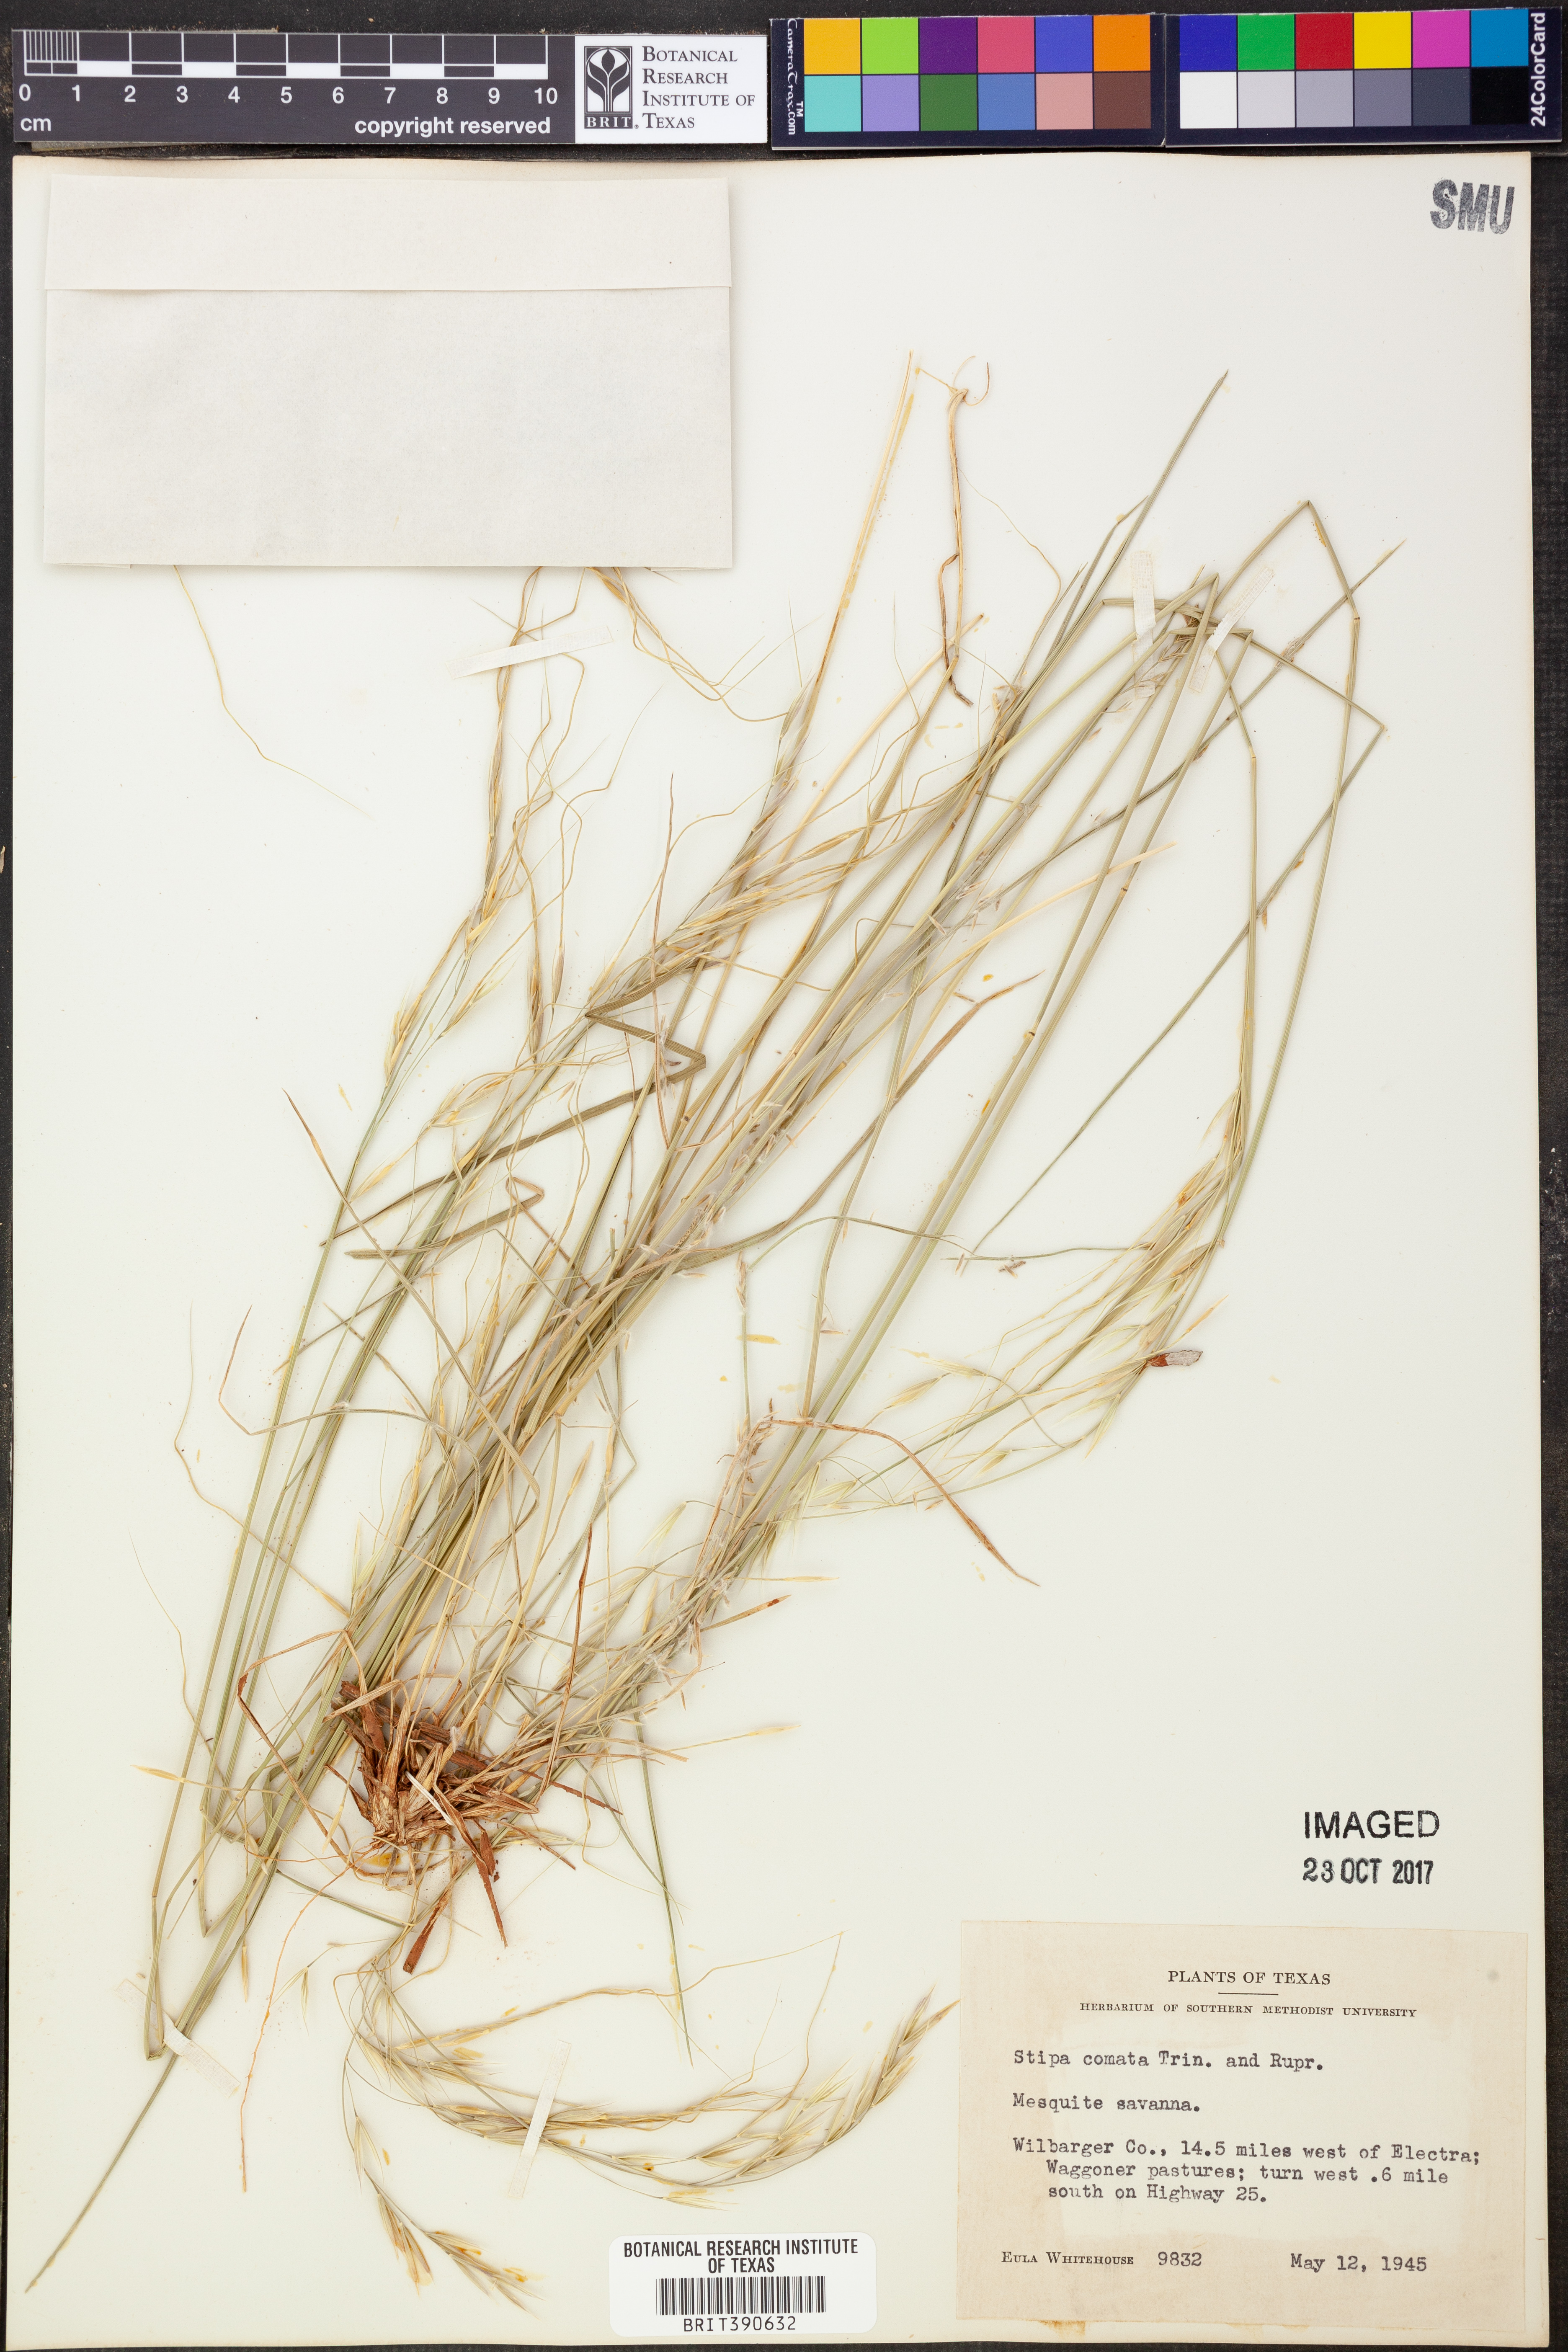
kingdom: Plantae
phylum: Tracheophyta
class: Liliopsida
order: Poales
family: Poaceae
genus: Hesperostipa
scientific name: Hesperostipa comata
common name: Needle-and-thread grass
